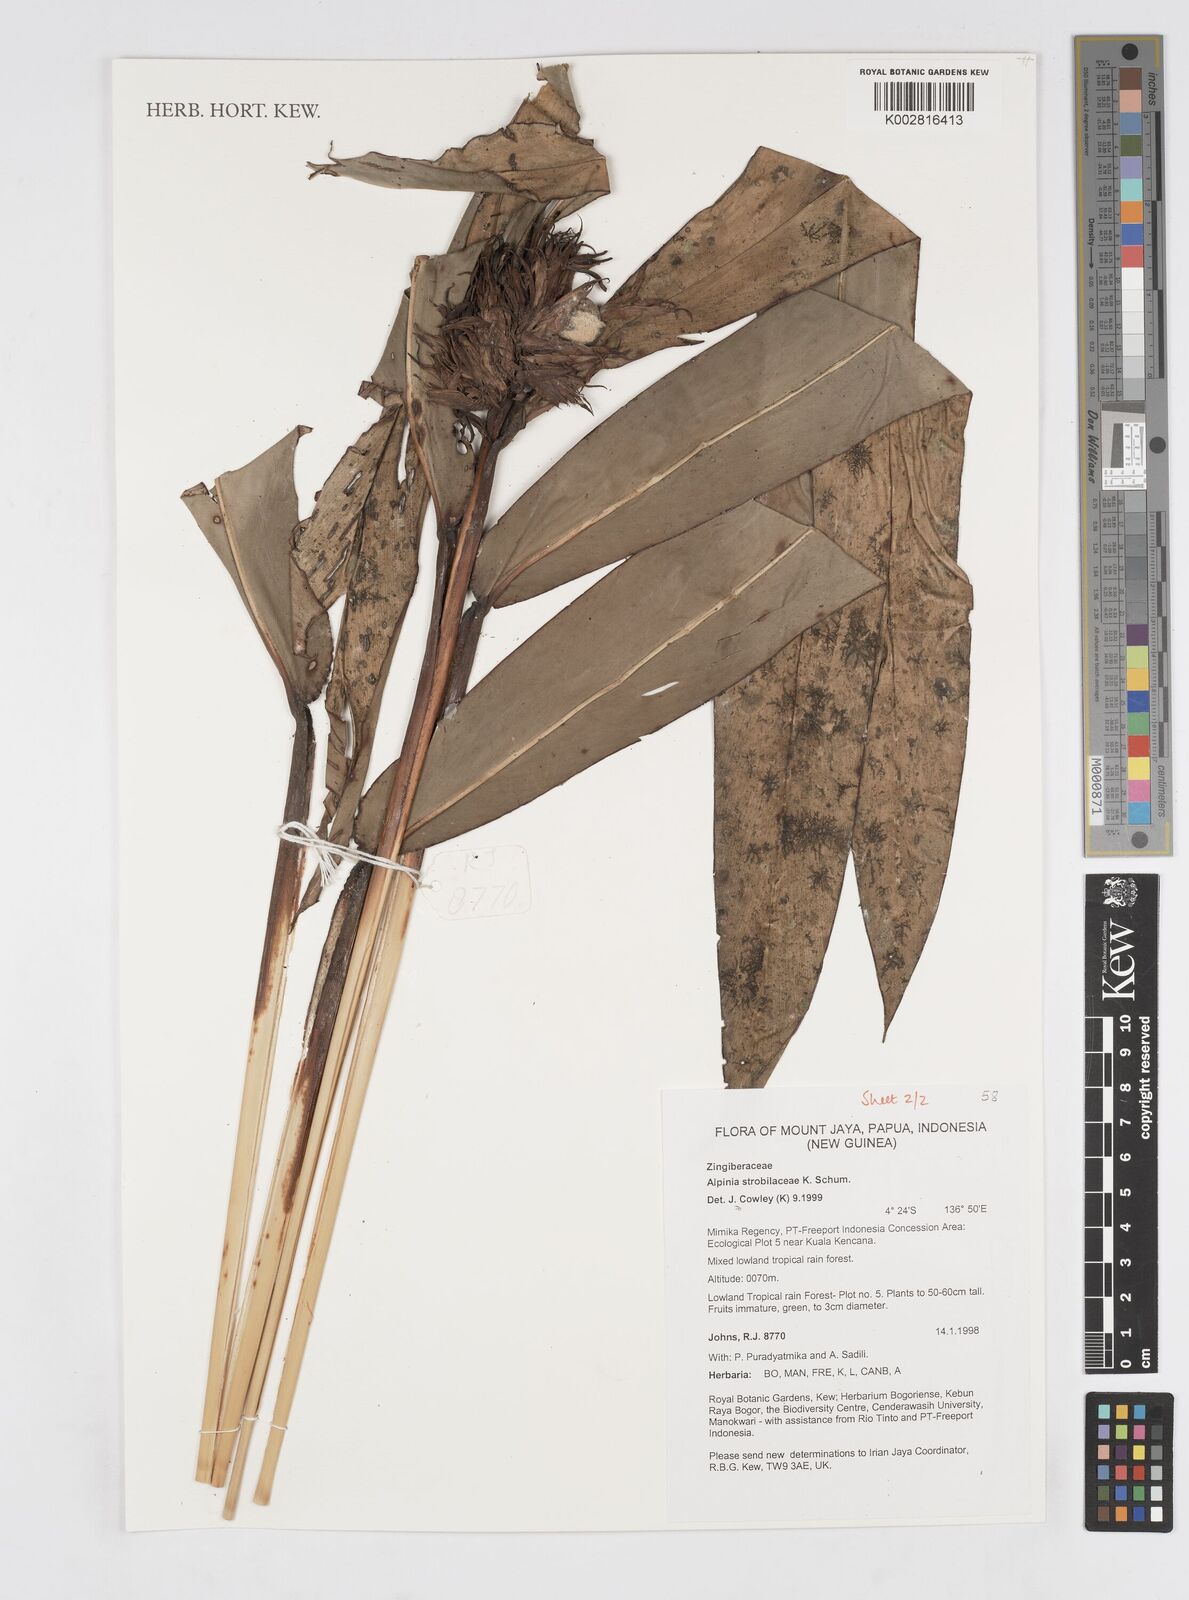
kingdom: Plantae
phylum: Tracheophyta
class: Liliopsida
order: Zingiberales
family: Zingiberaceae
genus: Alpinia
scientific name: Alpinia strobilacea
